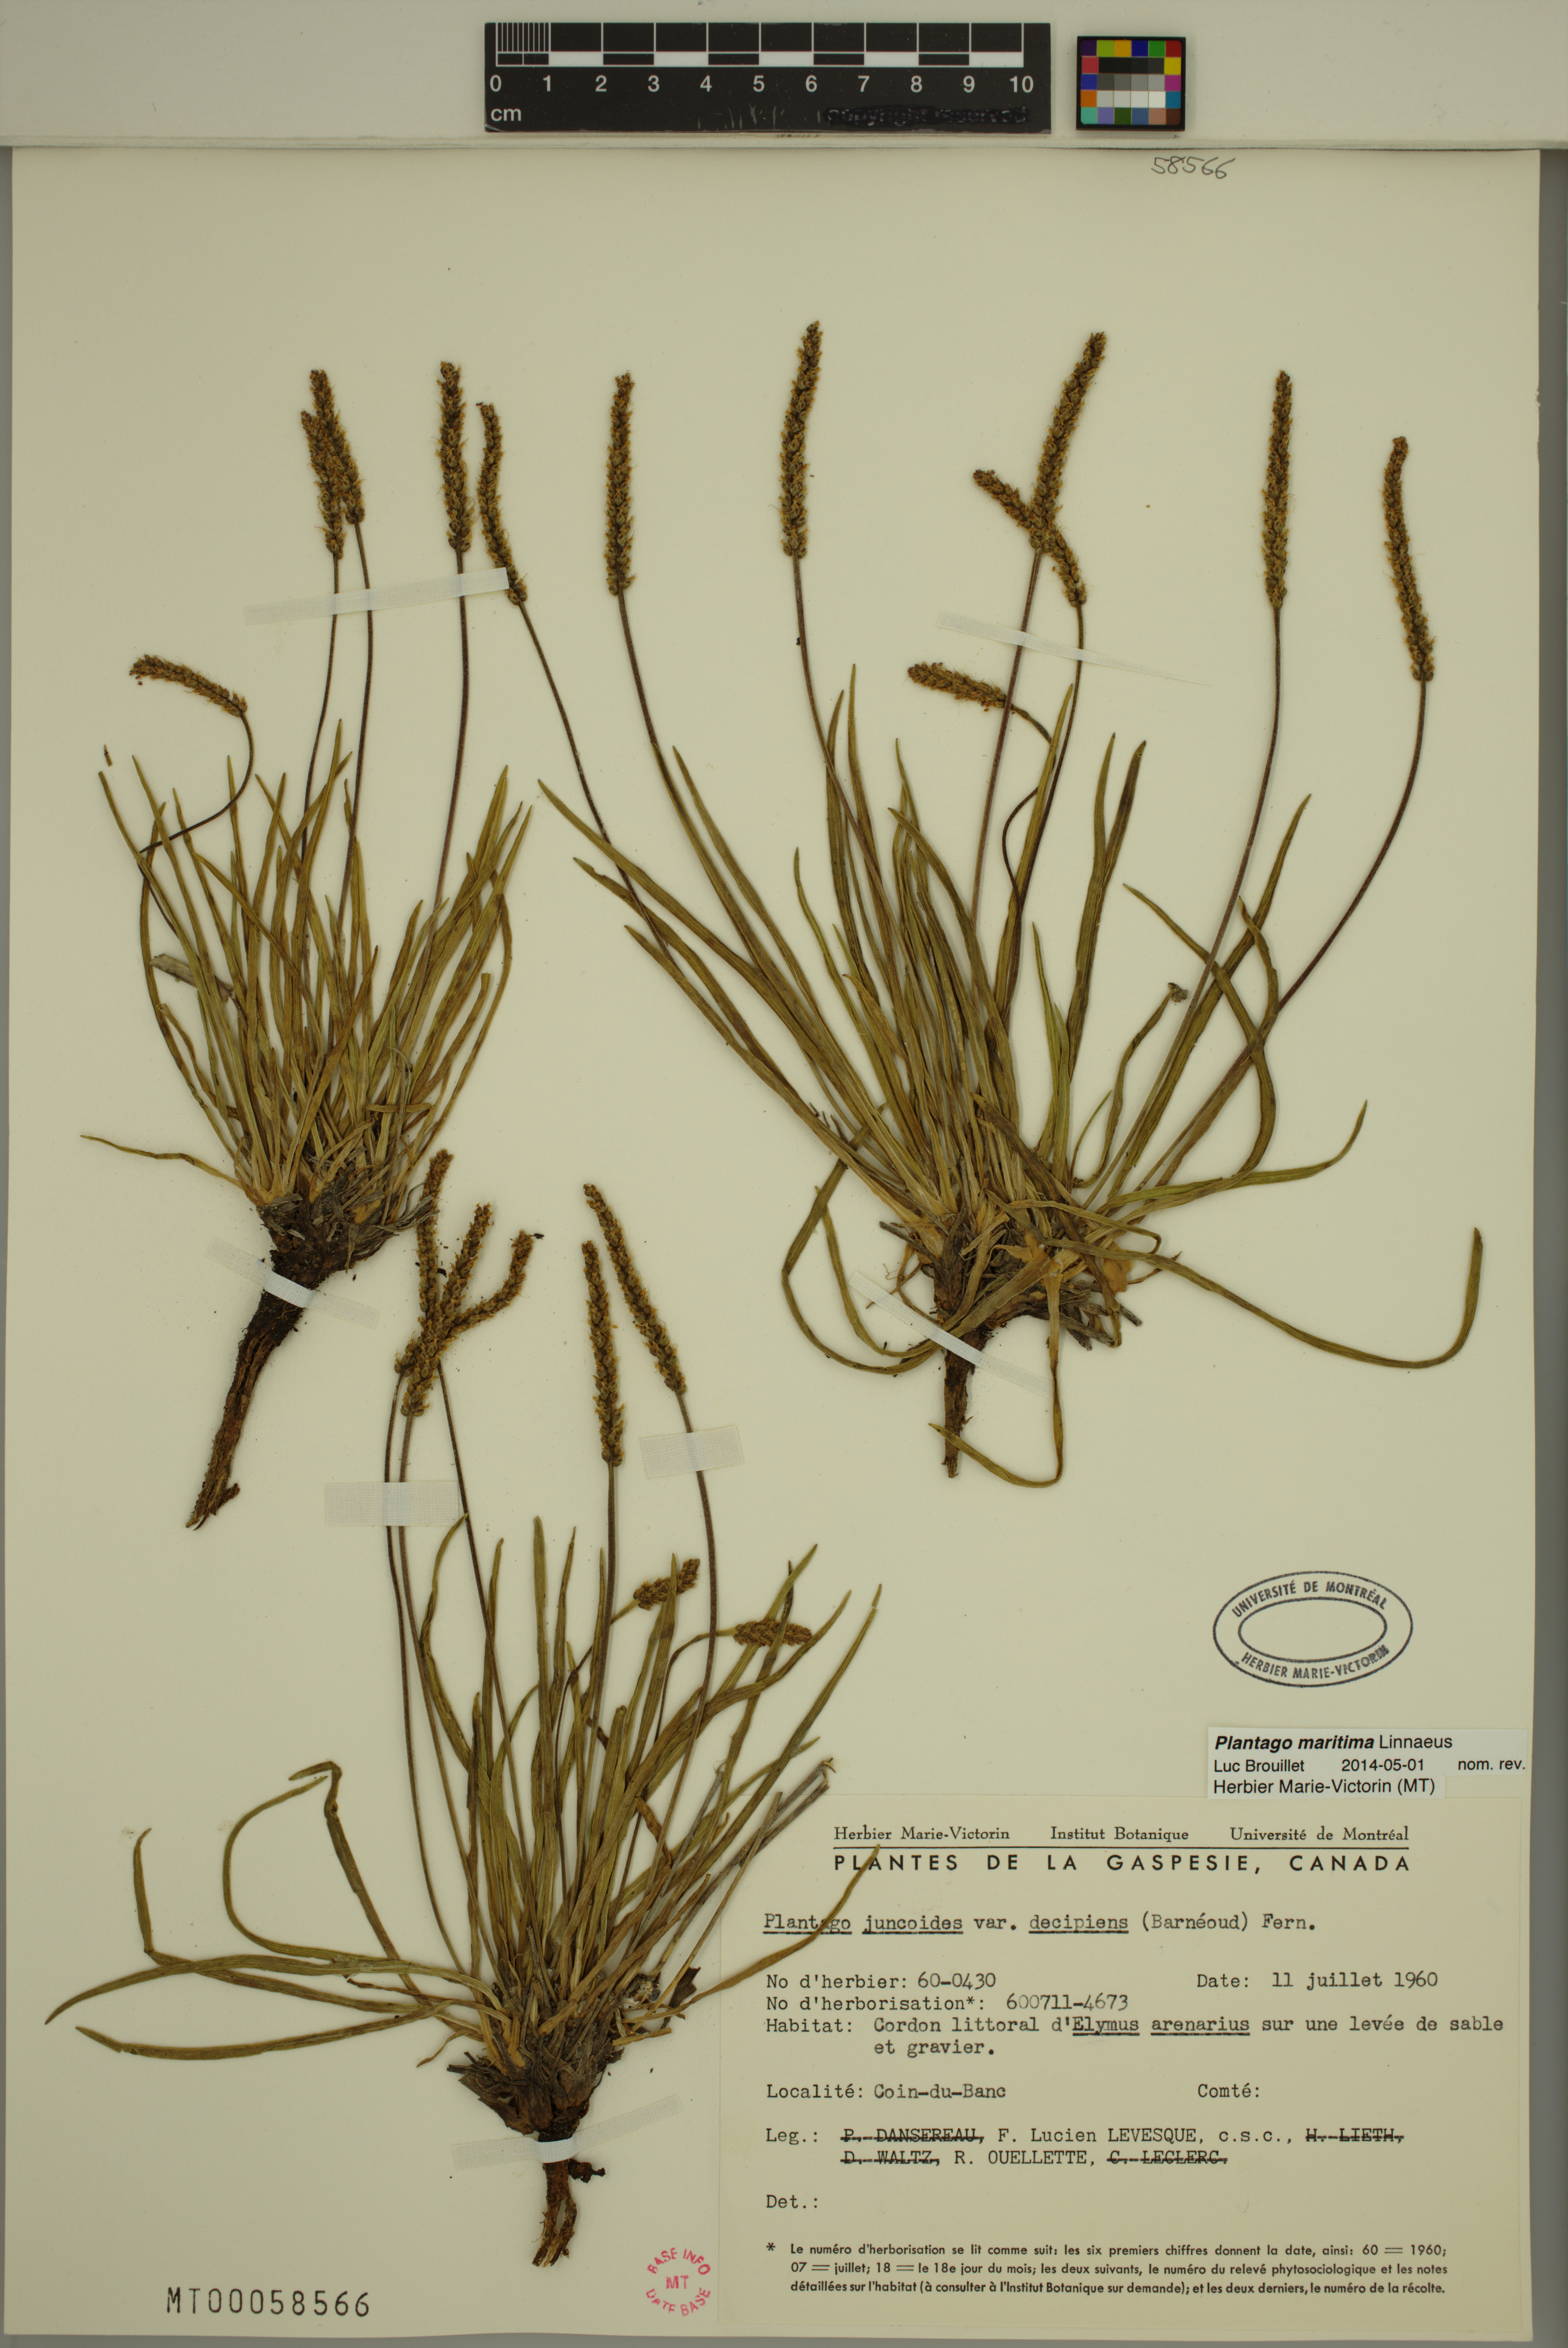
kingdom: Plantae
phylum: Tracheophyta
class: Magnoliopsida
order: Lamiales
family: Plantaginaceae
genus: Plantago
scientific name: Plantago maritima
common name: Sea plantain
